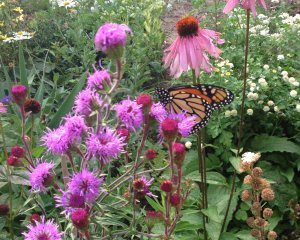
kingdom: Animalia
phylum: Arthropoda
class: Insecta
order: Lepidoptera
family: Nymphalidae
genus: Danaus
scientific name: Danaus plexippus
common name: Monarch
